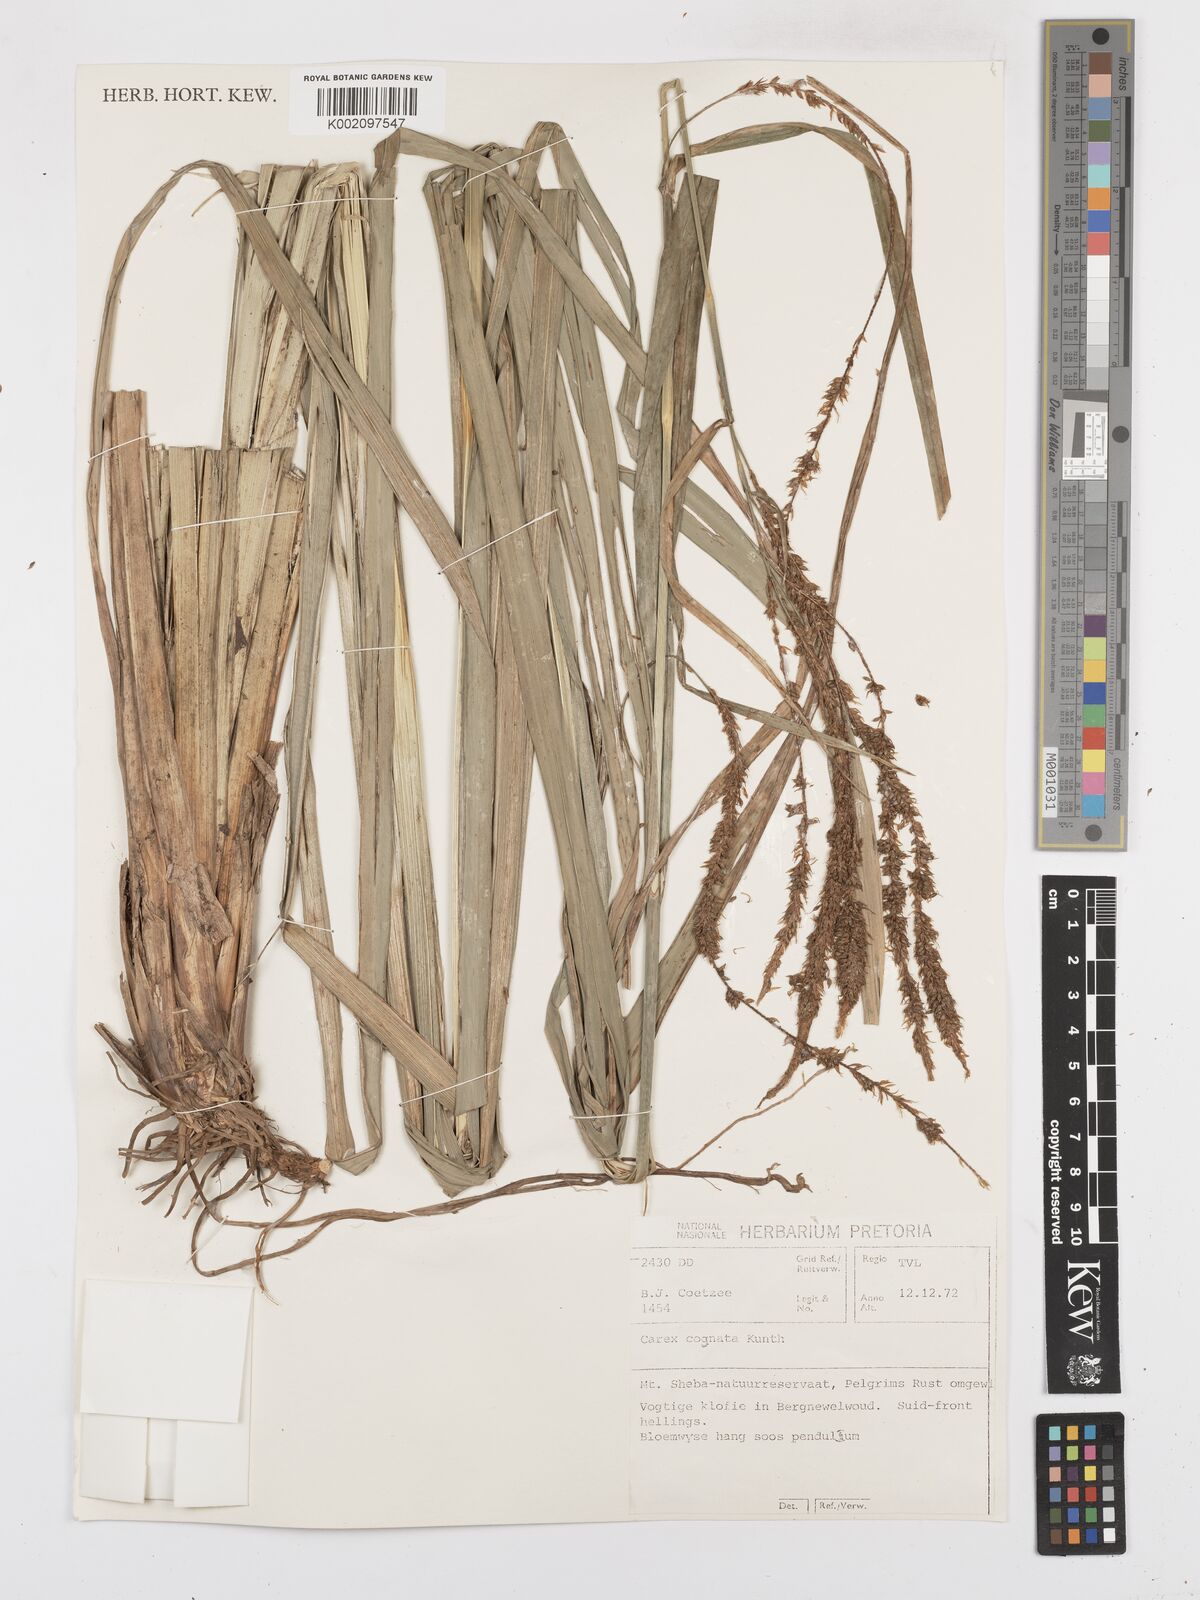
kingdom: Plantae
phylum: Tracheophyta
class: Liliopsida
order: Poales
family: Cyperaceae
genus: Carex
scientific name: Carex petitiana
